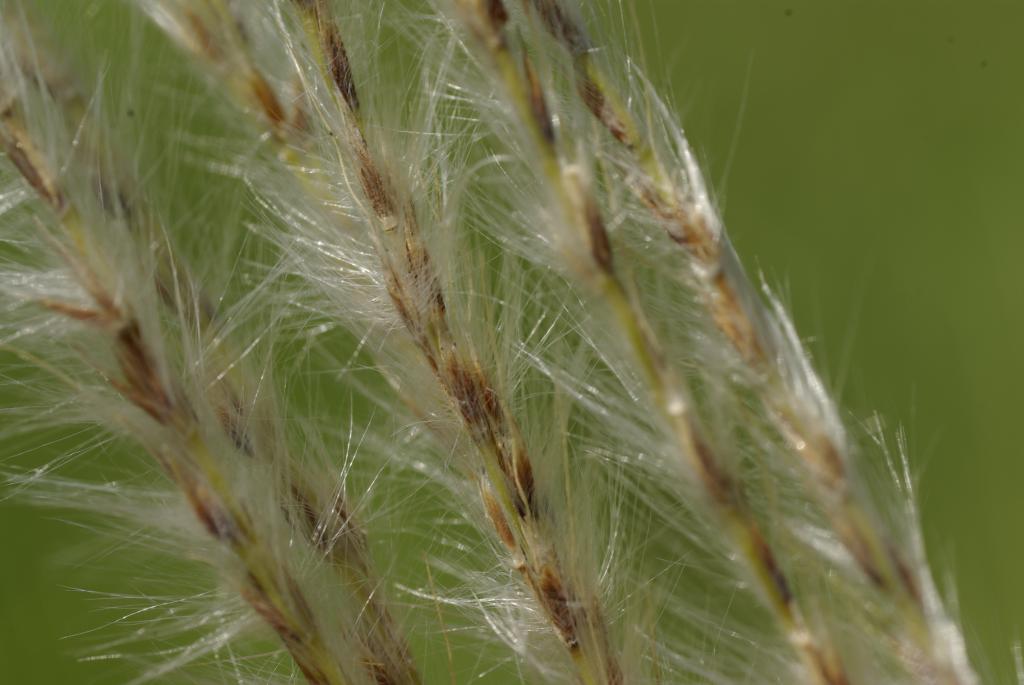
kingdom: Plantae
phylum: Tracheophyta
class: Liliopsida
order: Poales
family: Poaceae
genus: Saccharum
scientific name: Saccharum formosanum
